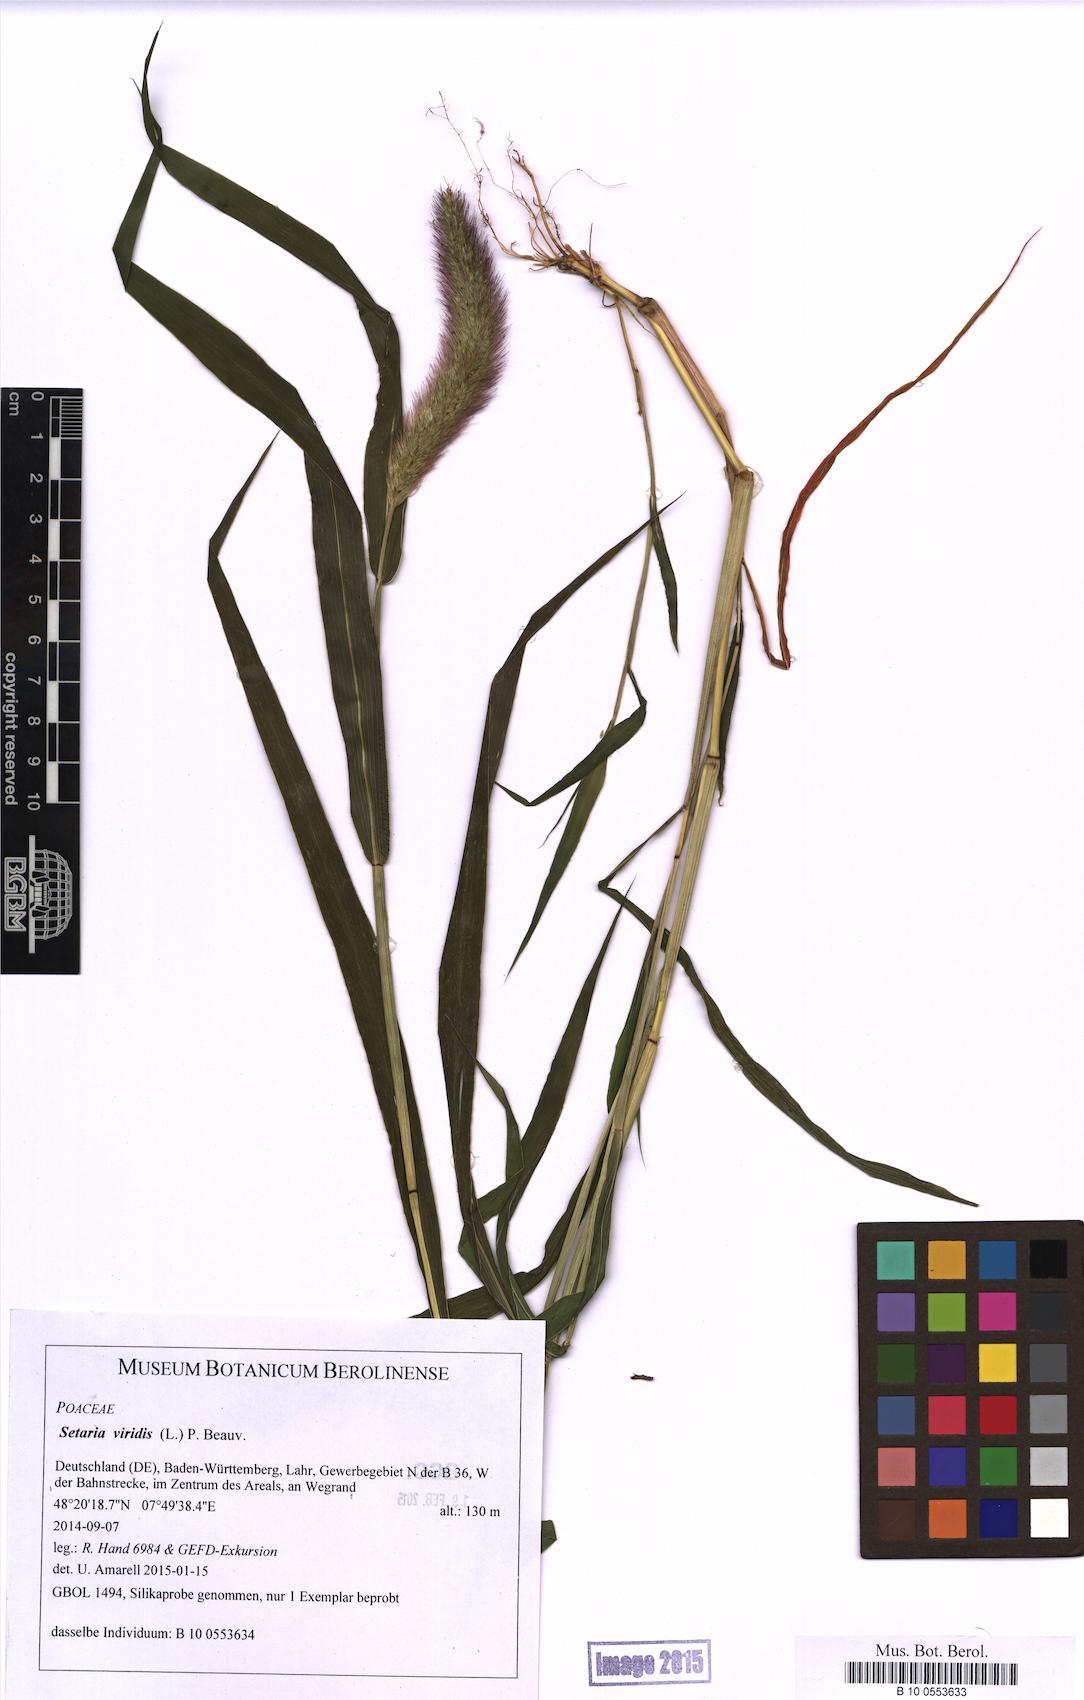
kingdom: Plantae
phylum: Tracheophyta
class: Liliopsida
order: Poales
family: Poaceae
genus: Setaria
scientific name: Setaria viridis
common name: Green bristlegrass
